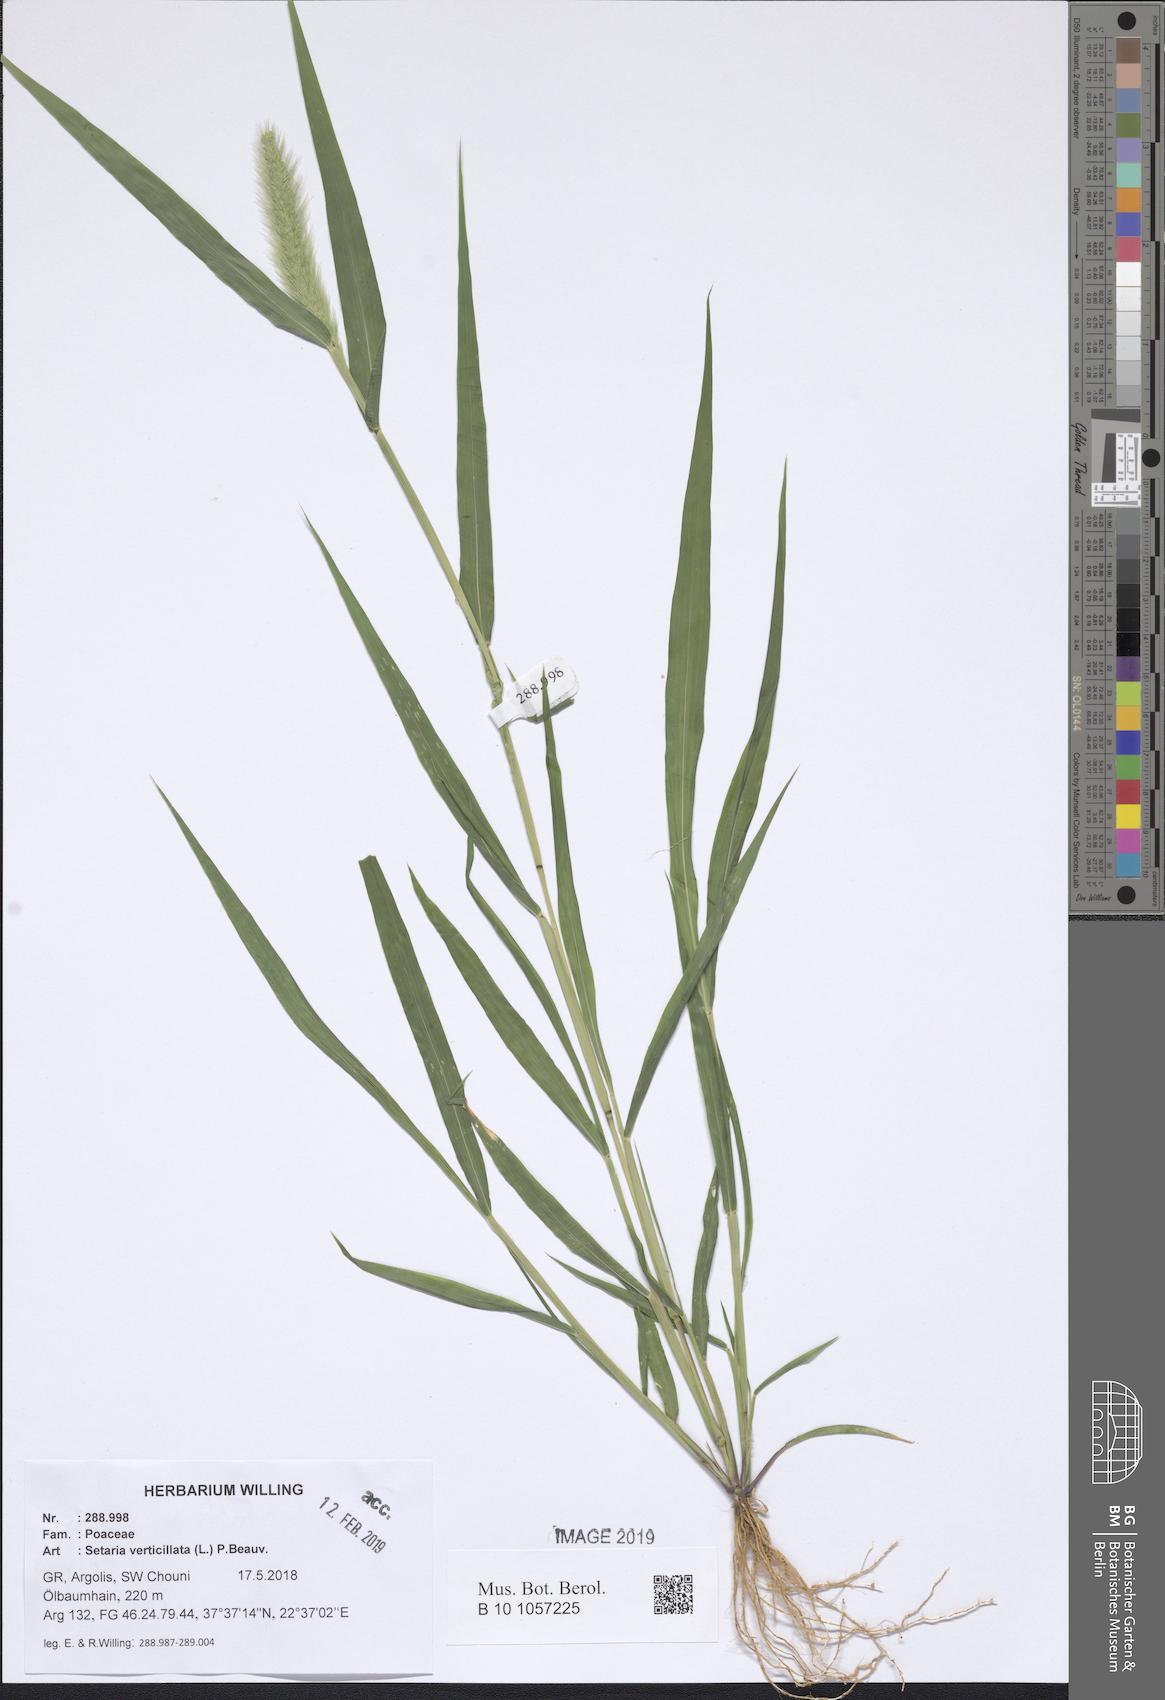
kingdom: Plantae
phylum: Tracheophyta
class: Liliopsida
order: Poales
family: Poaceae
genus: Setaria
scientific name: Setaria verticillata
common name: Hooked bristlegrass
